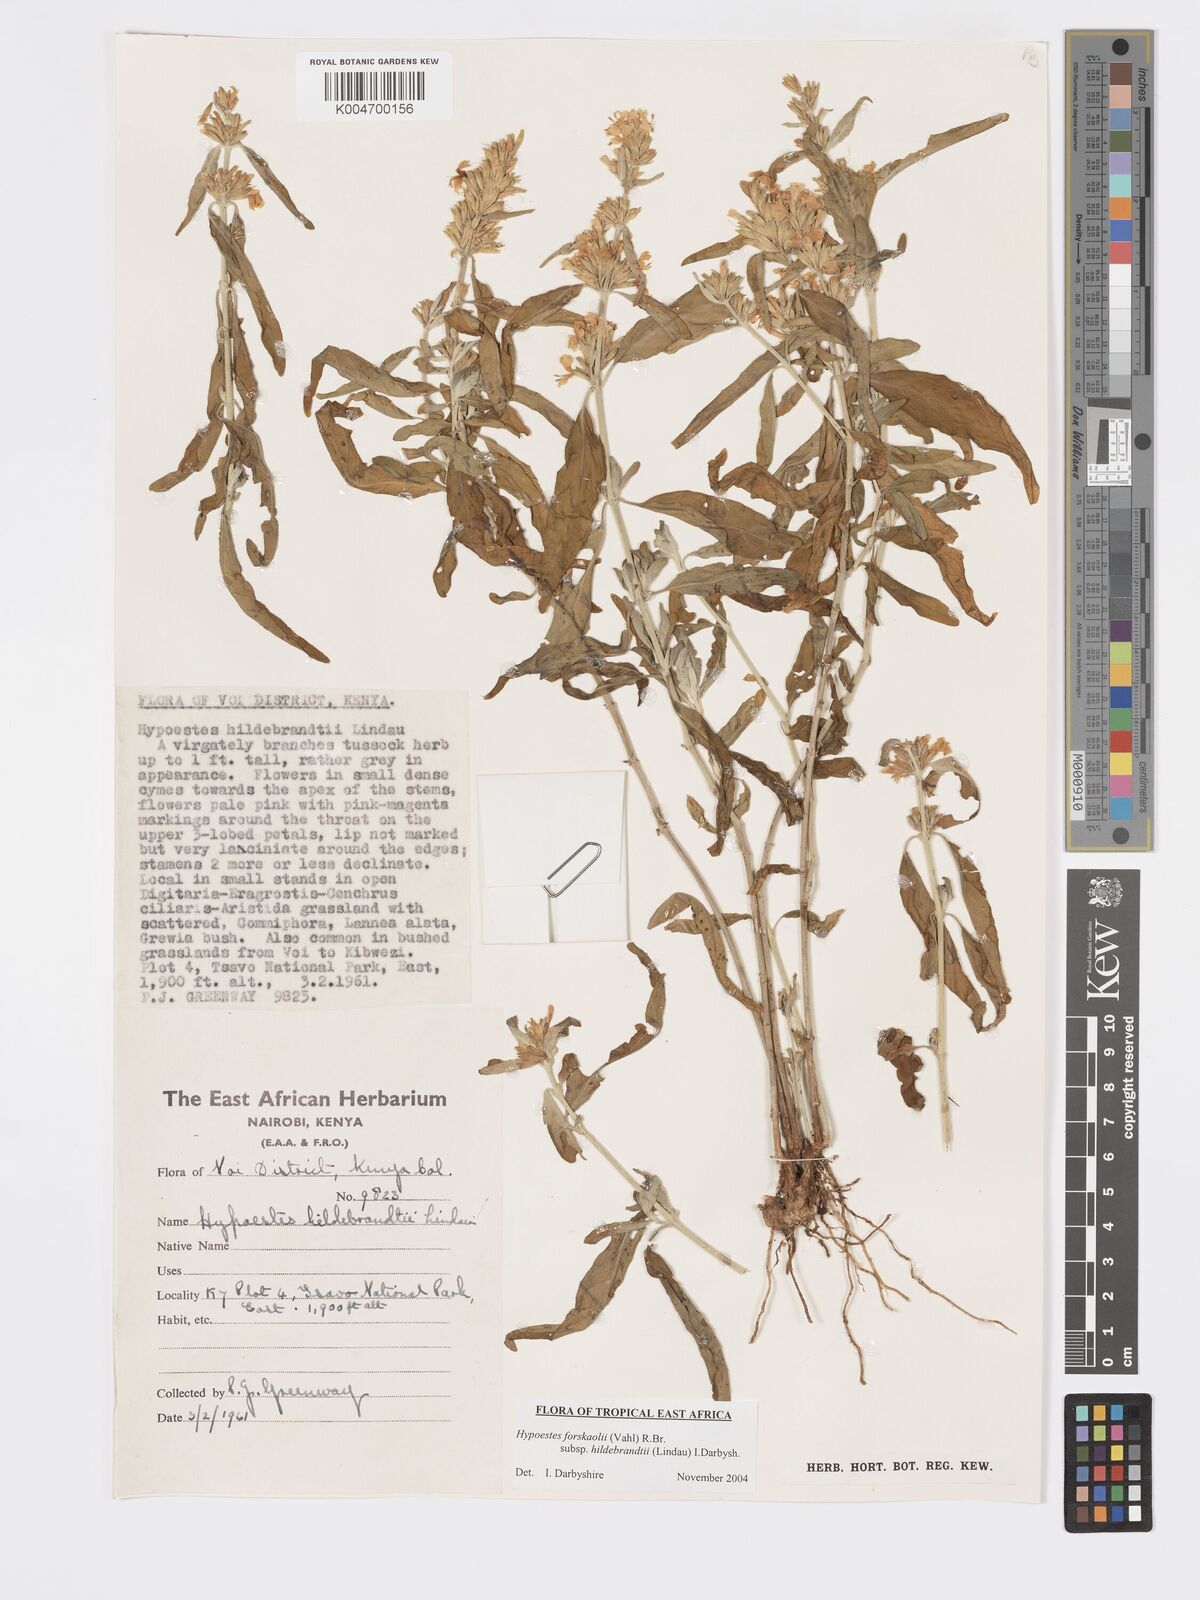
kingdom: Plantae
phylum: Tracheophyta
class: Magnoliopsida
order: Lamiales
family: Acanthaceae
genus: Hypoestes
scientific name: Hypoestes forskaolii
